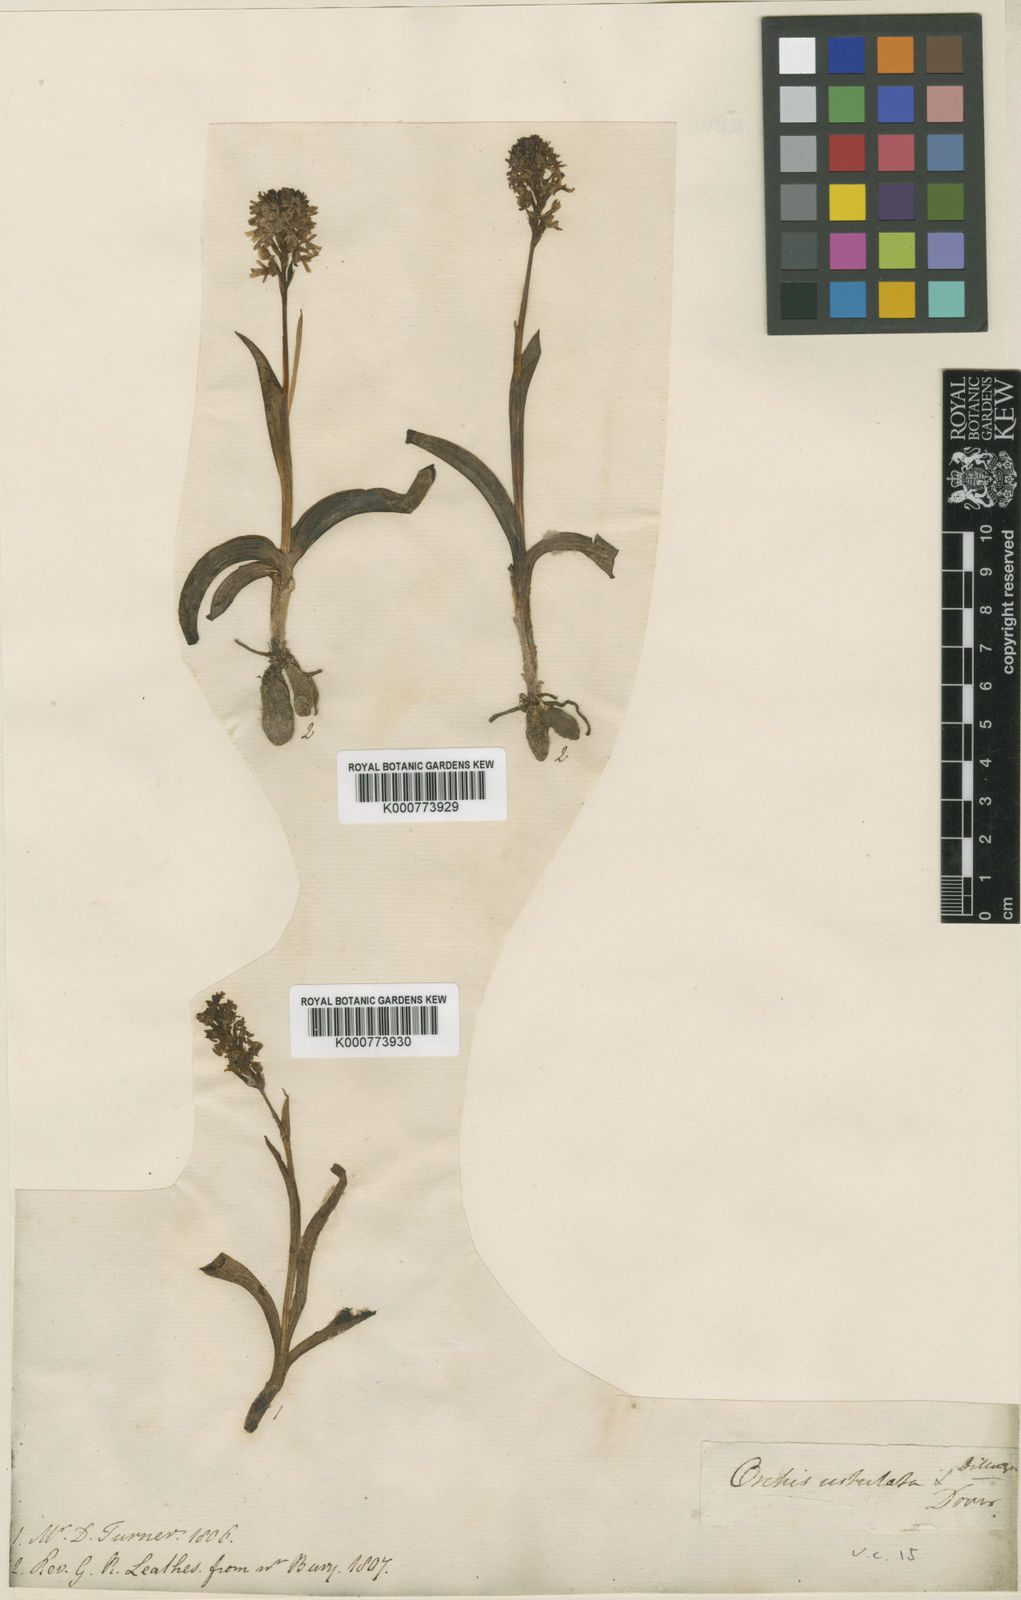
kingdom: Plantae
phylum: Tracheophyta
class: Liliopsida
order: Asparagales
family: Orchidaceae
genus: Neotinea
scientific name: Neotinea ustulata
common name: Burnt orchid
